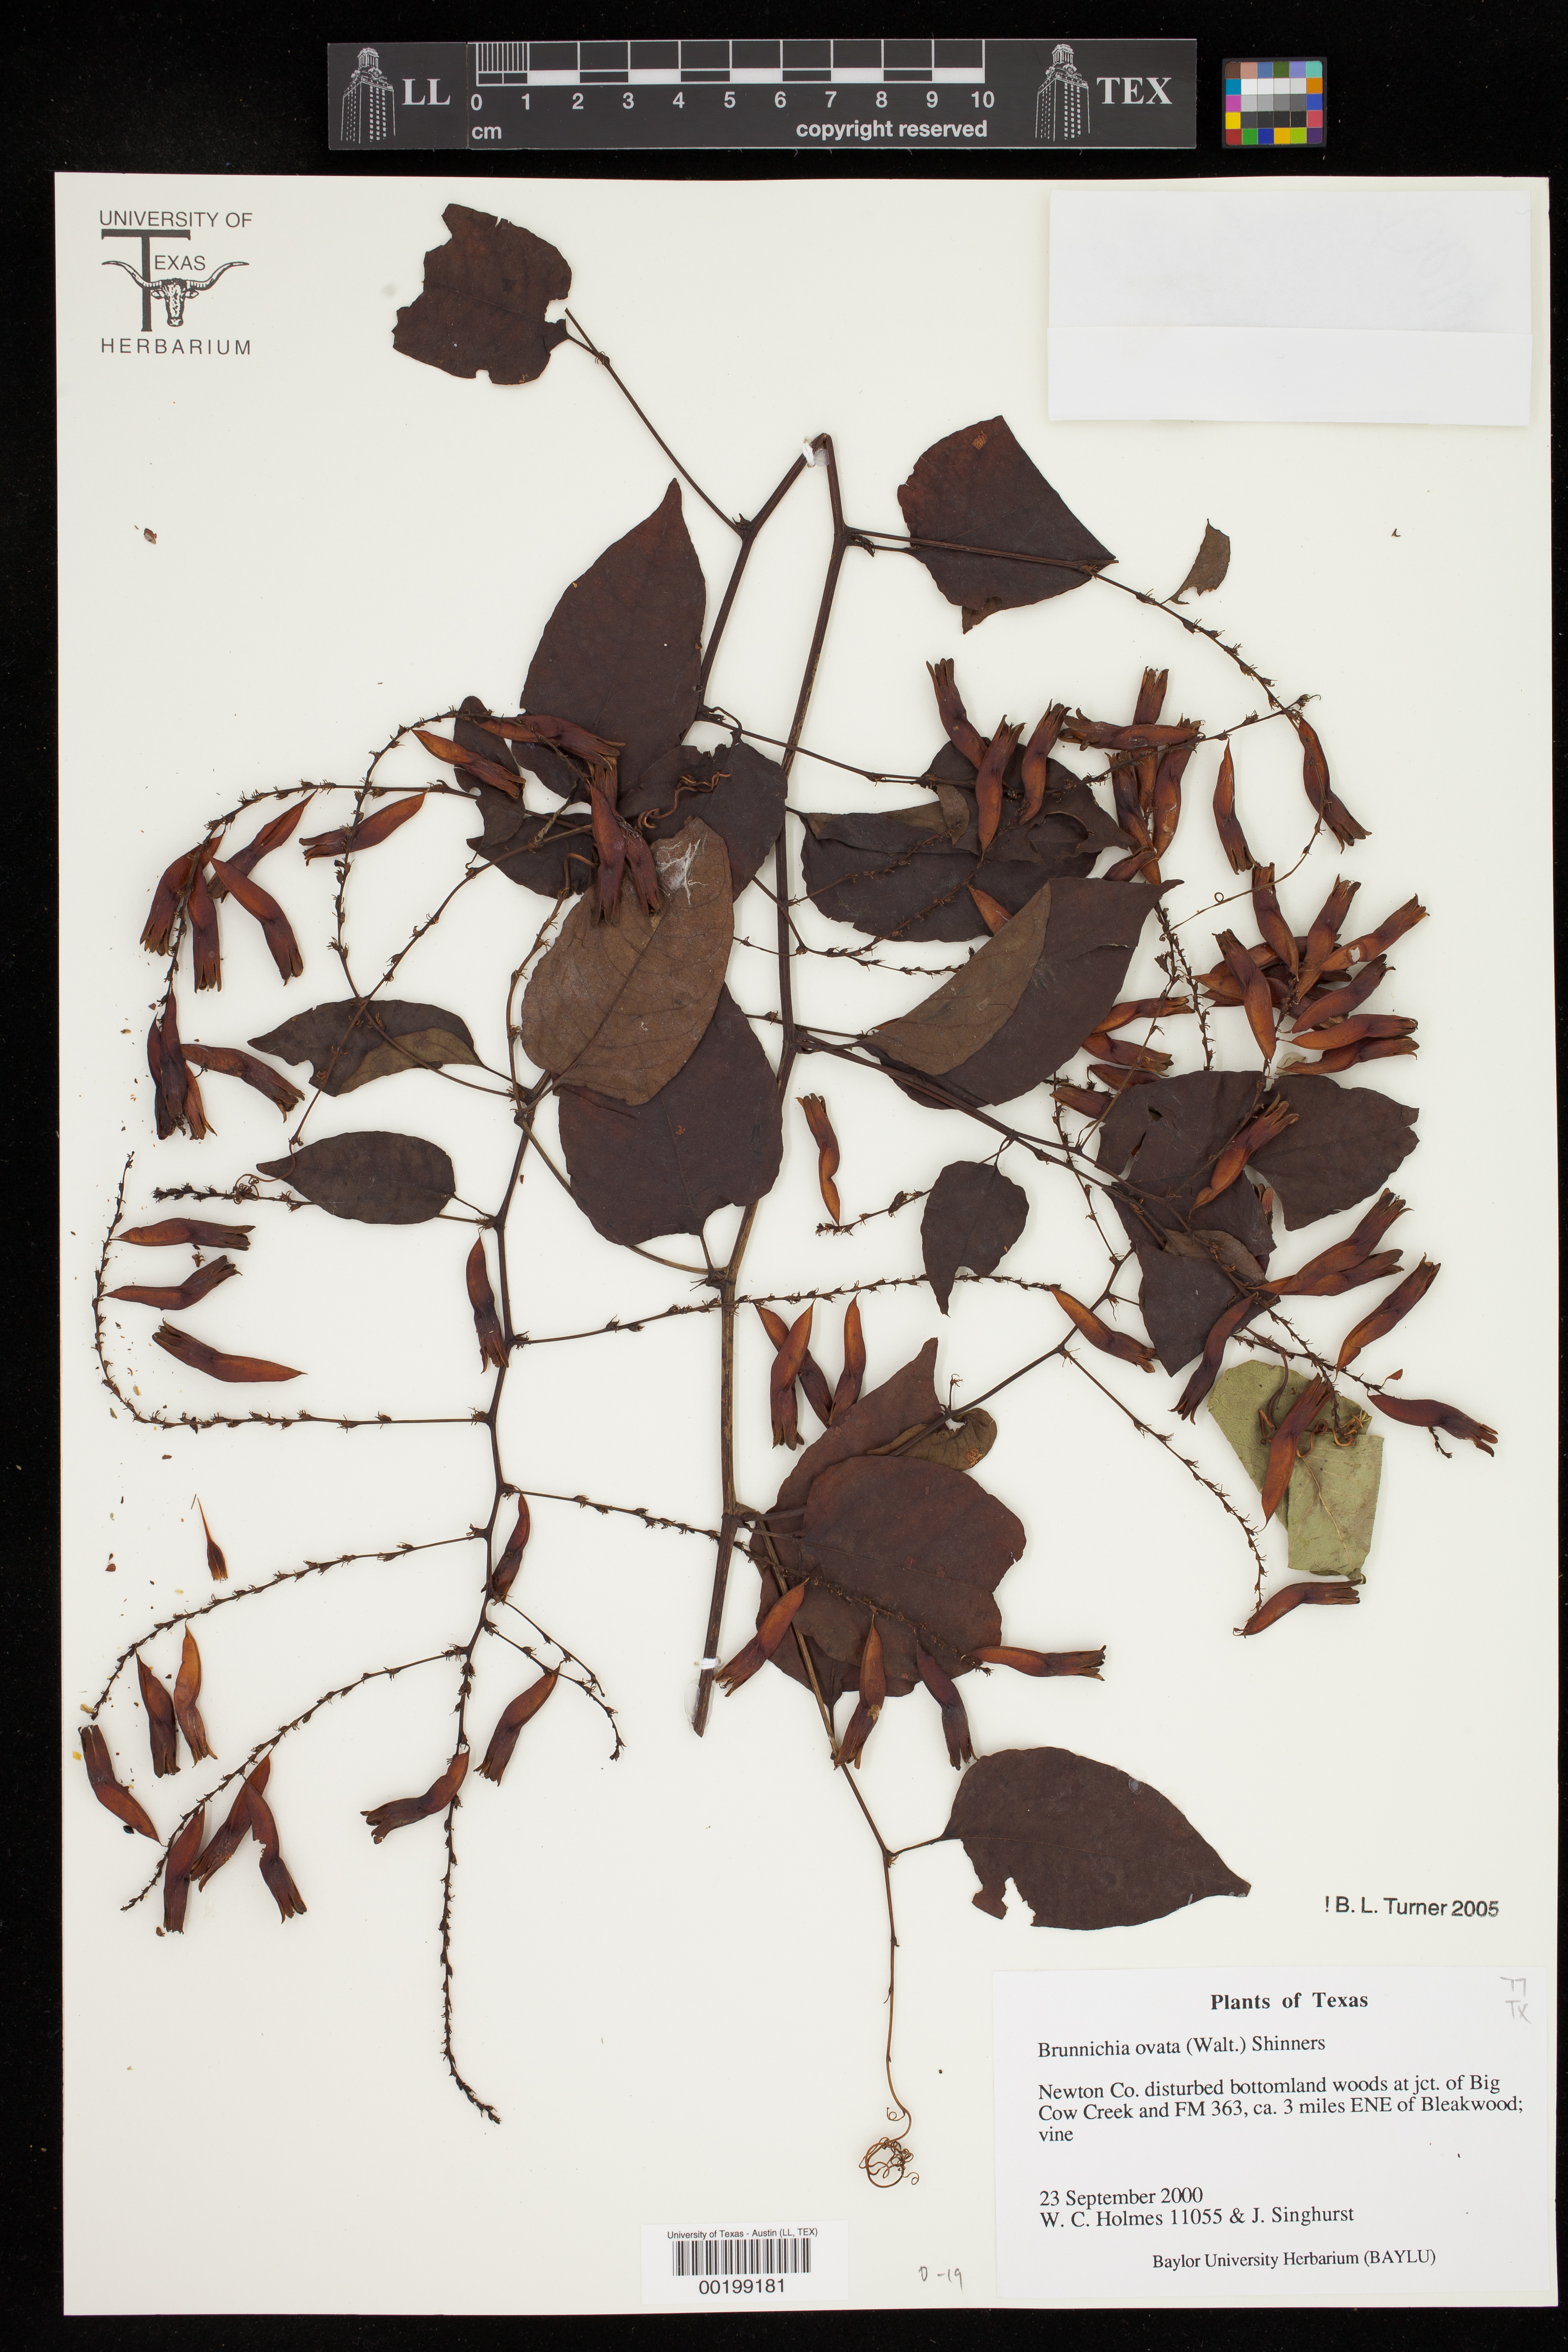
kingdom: Plantae
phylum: Tracheophyta
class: Magnoliopsida
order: Caryophyllales
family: Polygonaceae
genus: Brunnichia
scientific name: Brunnichia ovata
